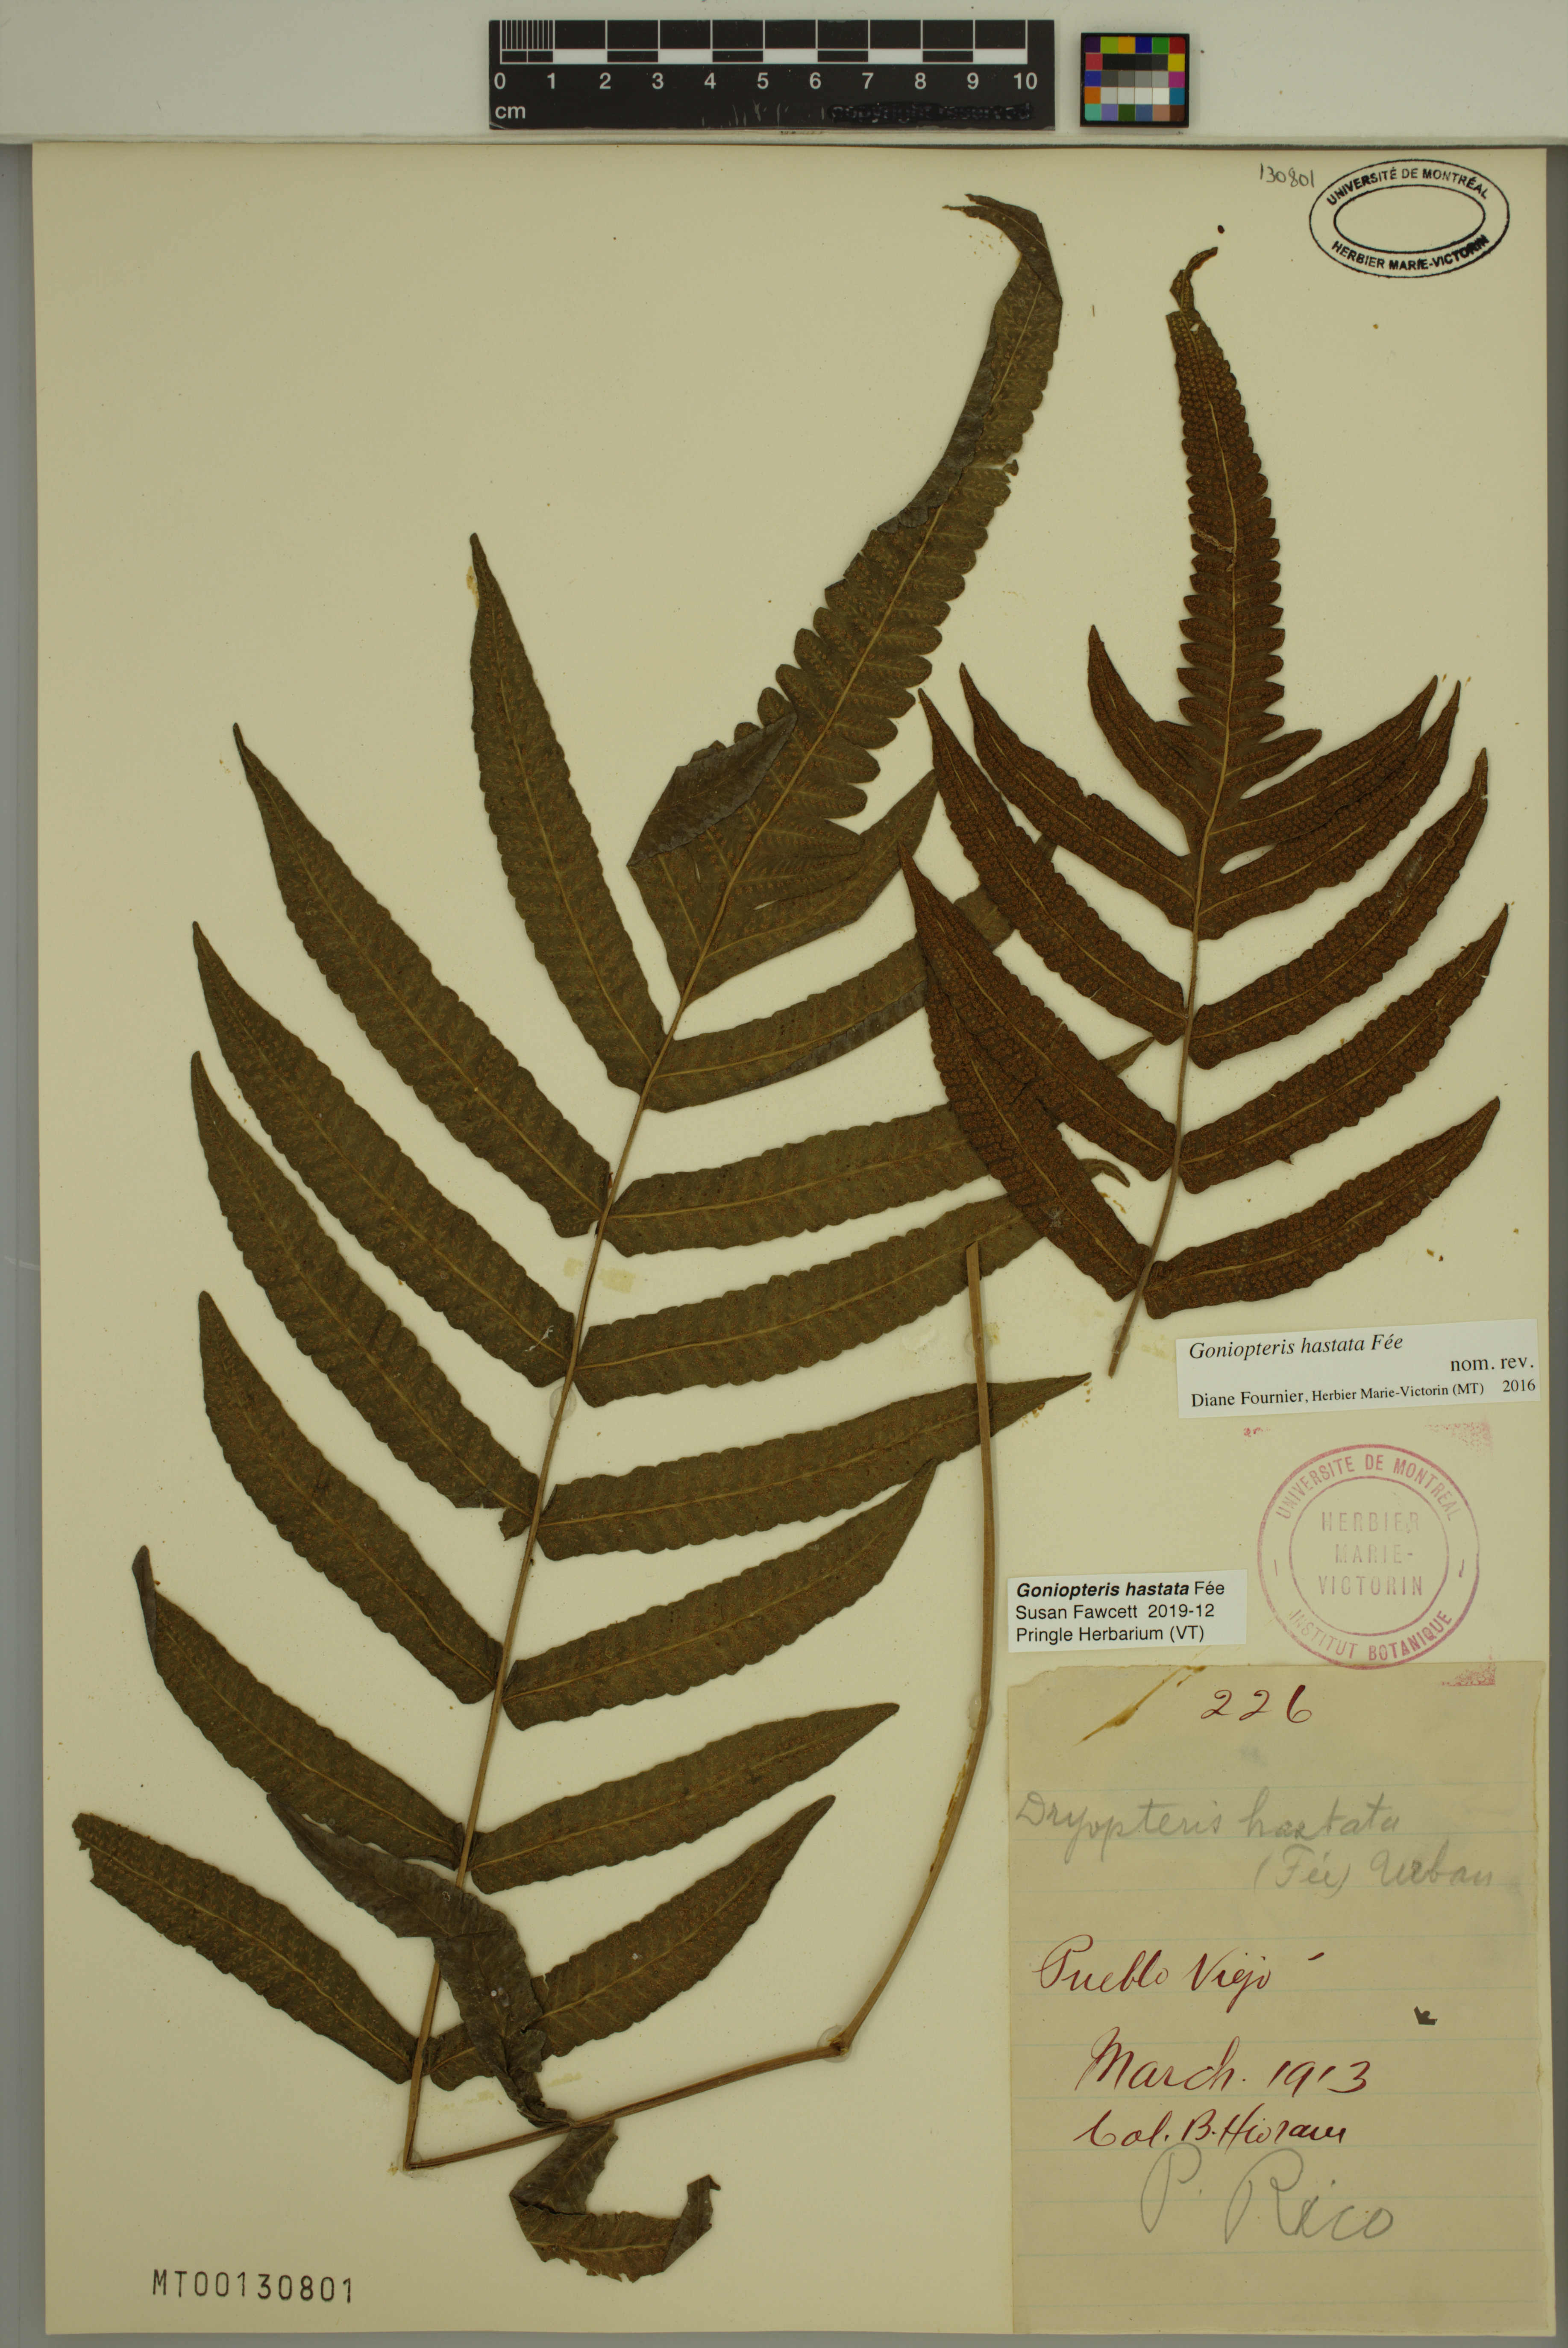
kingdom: Plantae
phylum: Tracheophyta
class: Polypodiopsida
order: Polypodiales
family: Thelypteridaceae
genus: Goniopteris
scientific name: Goniopteris hastata
